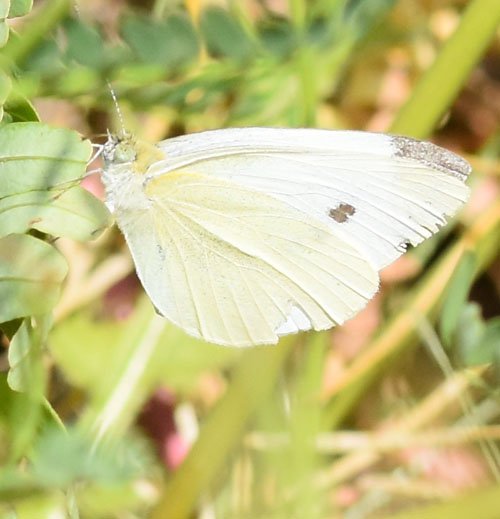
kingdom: Animalia
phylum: Arthropoda
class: Insecta
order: Lepidoptera
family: Pieridae
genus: Pieris
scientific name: Pieris rapae
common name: Cabbage White
